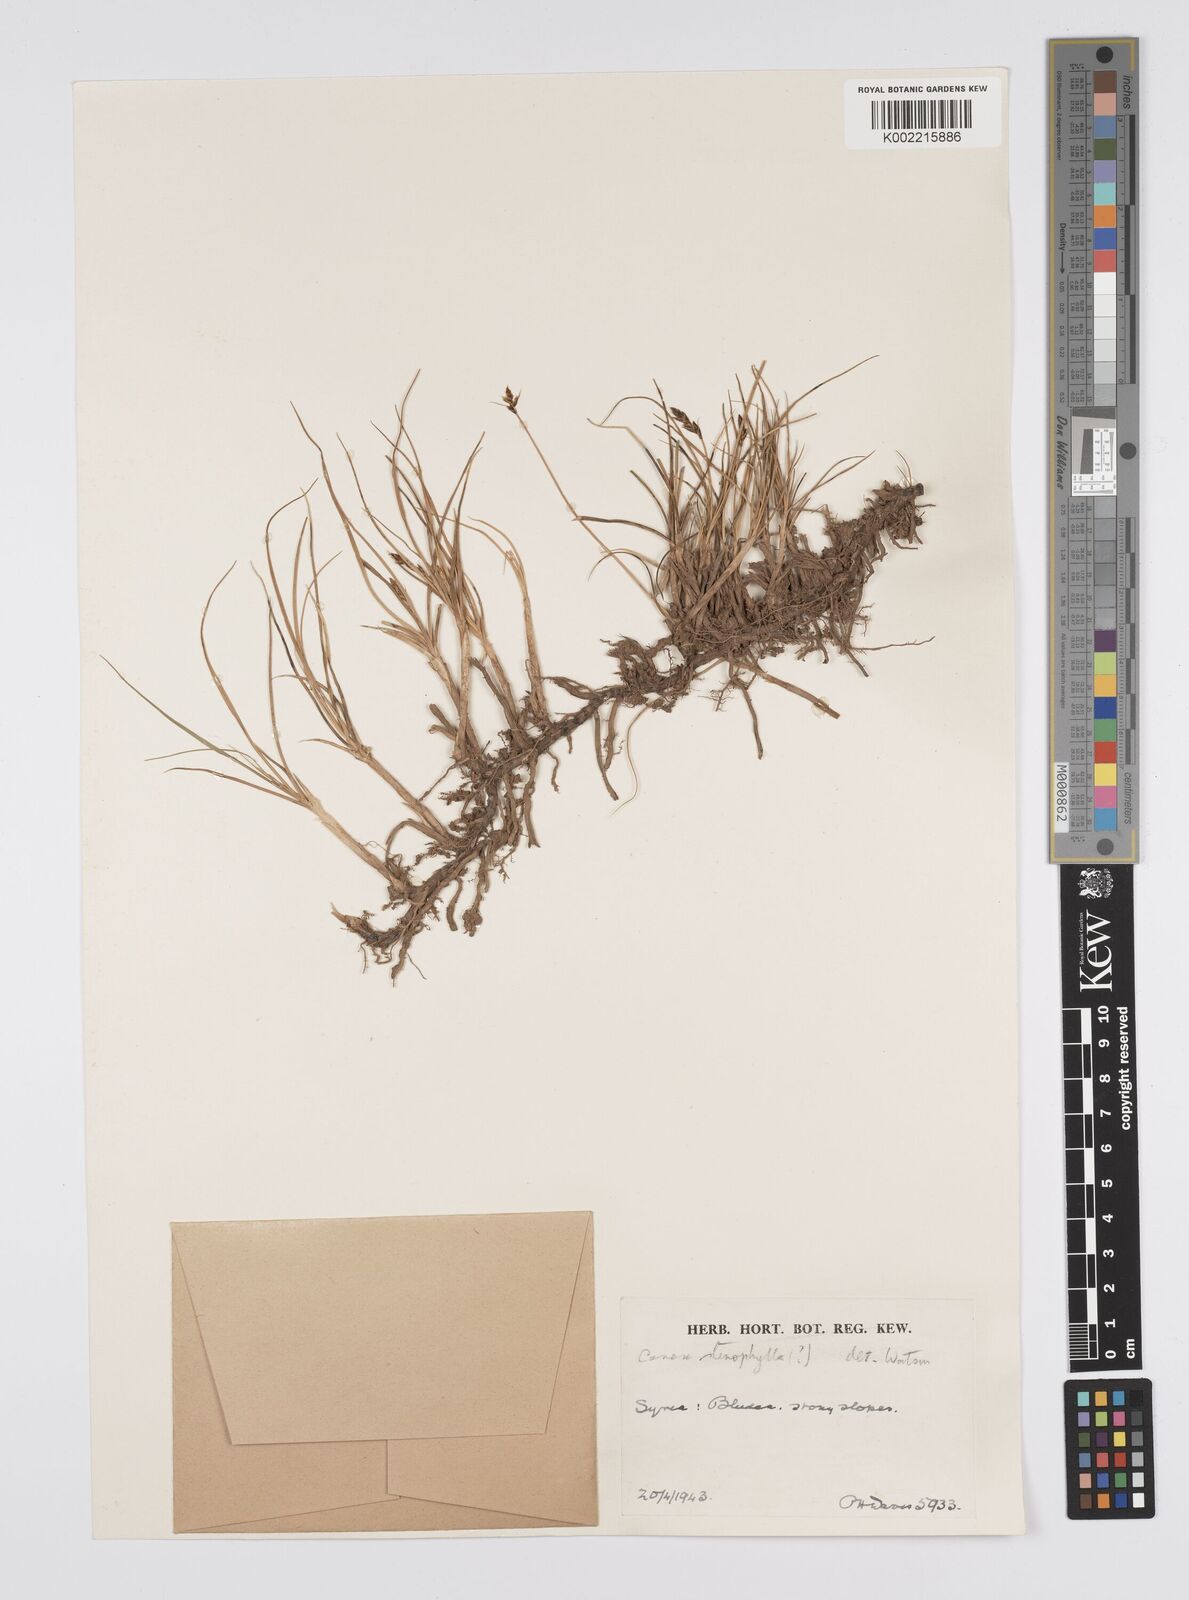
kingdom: Plantae
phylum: Tracheophyta
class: Liliopsida
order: Poales
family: Cyperaceae
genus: Carex
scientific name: Carex stenophylla
